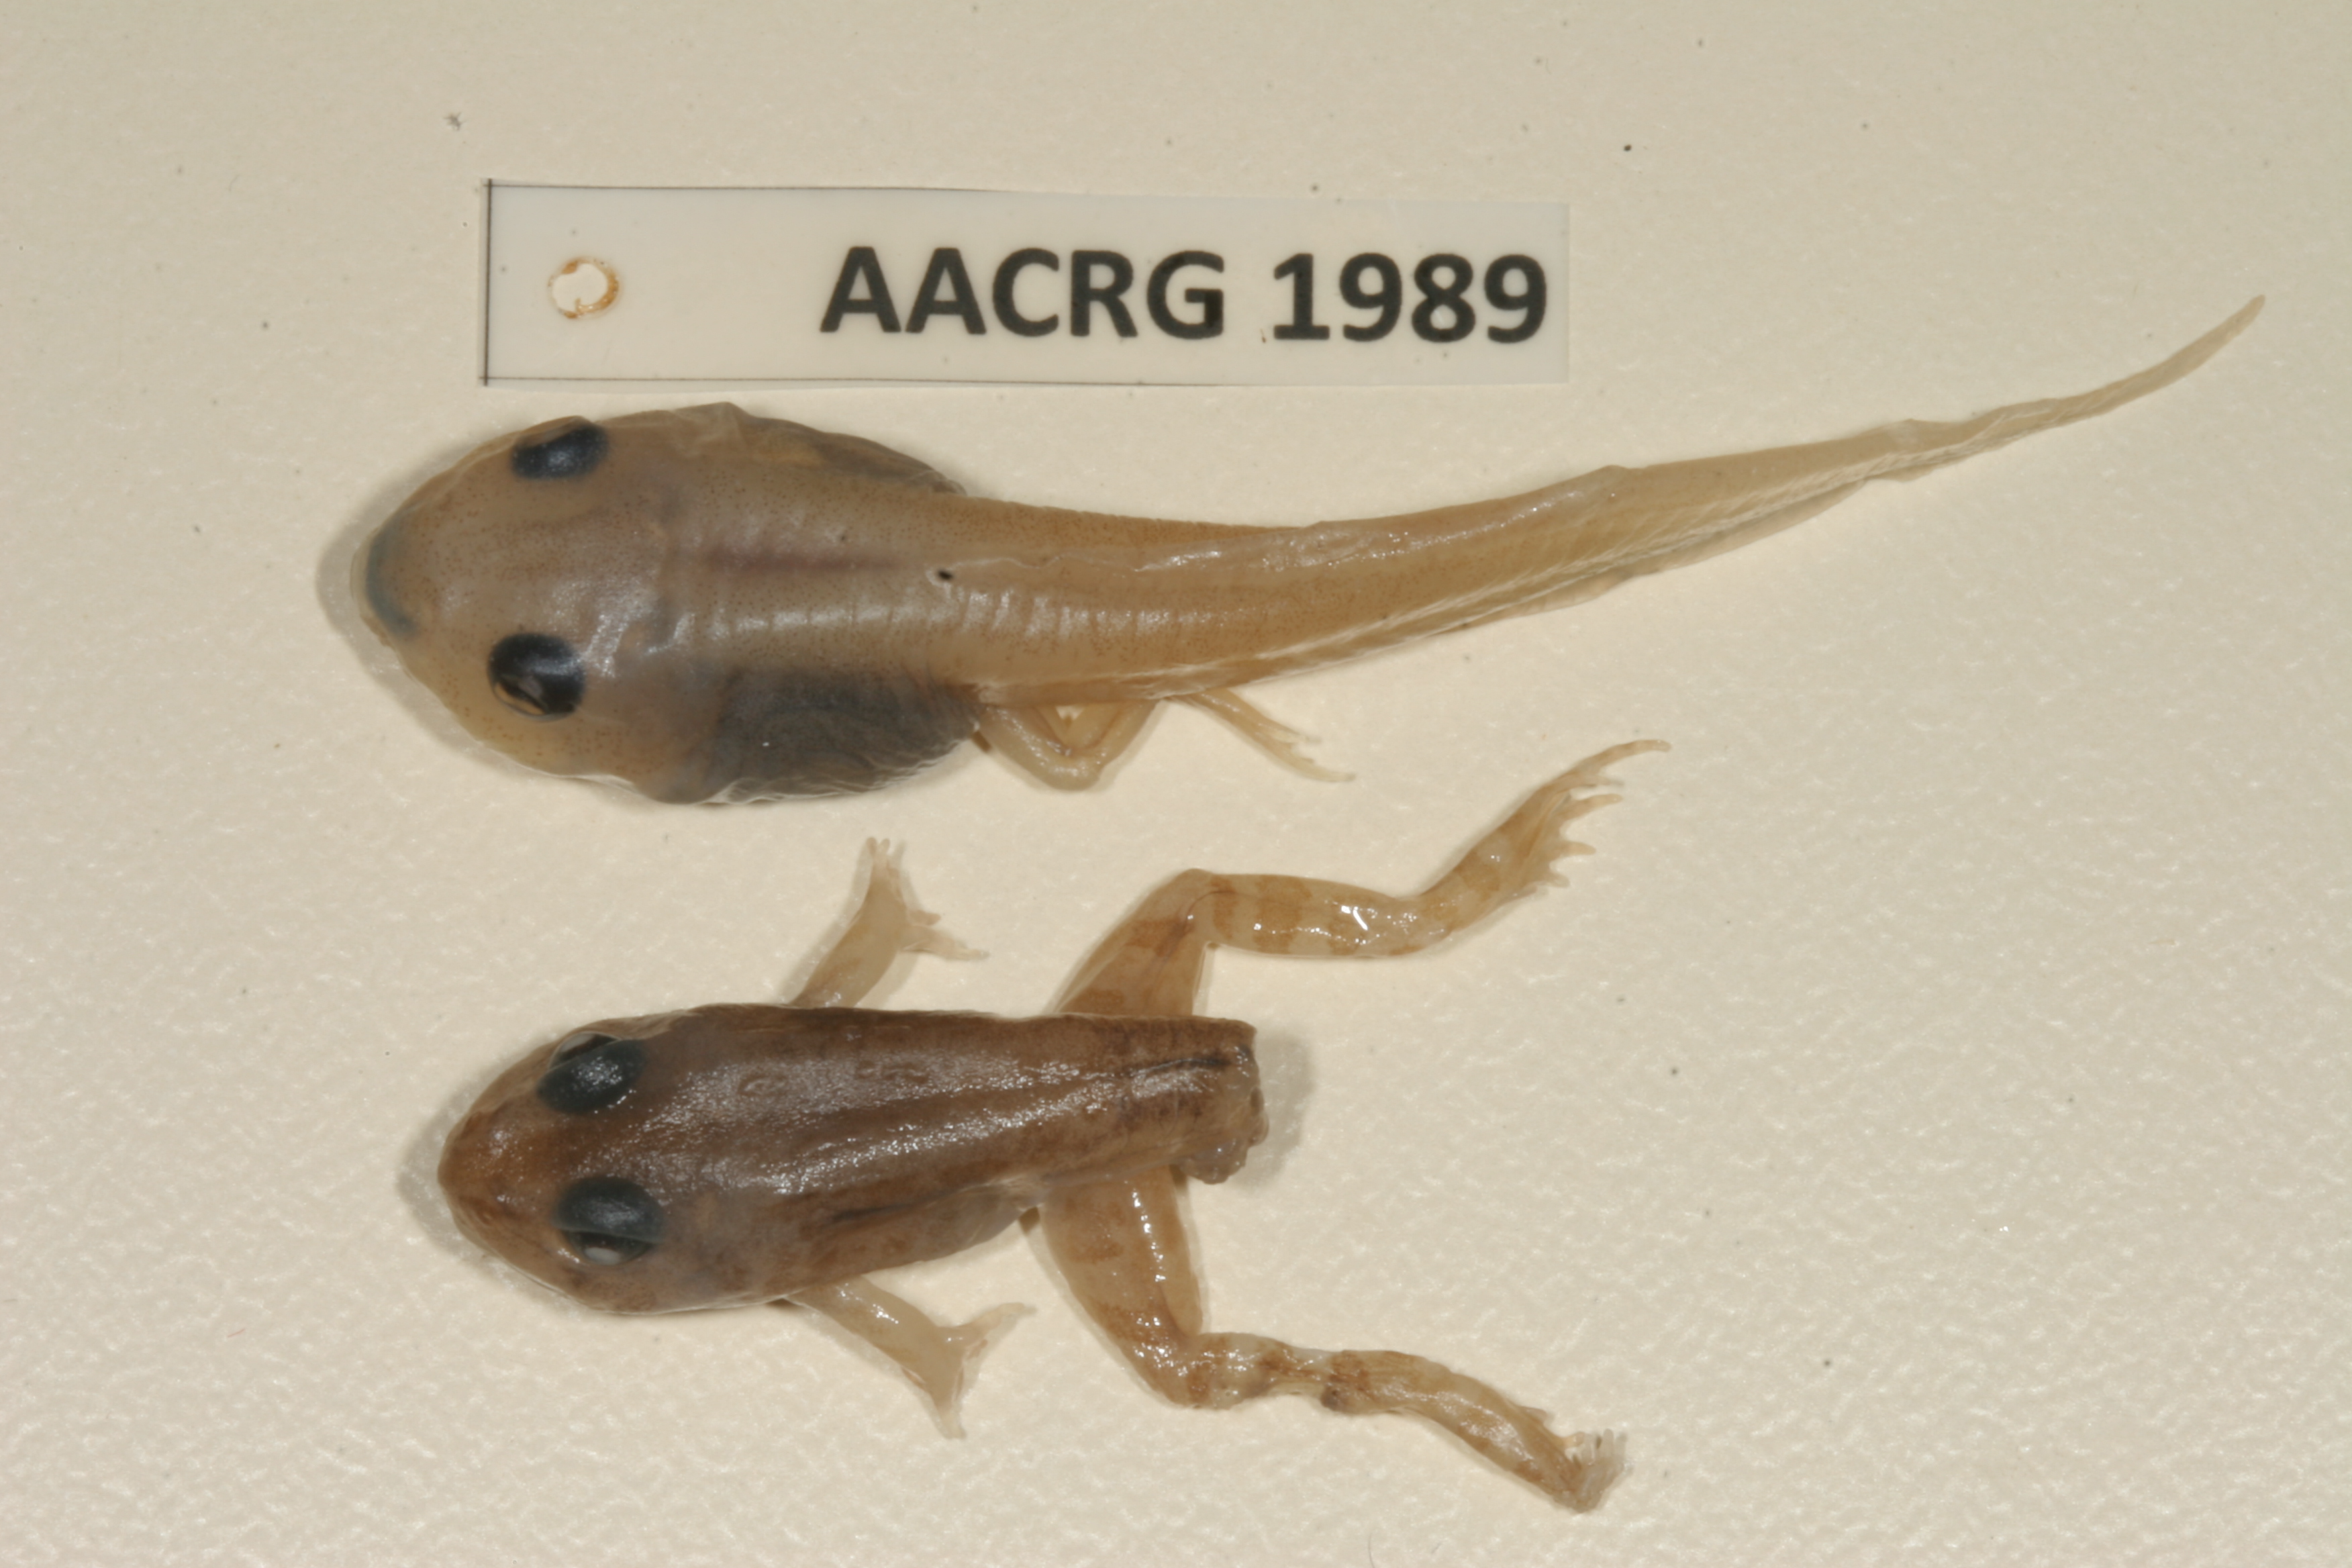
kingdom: Animalia
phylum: Chordata
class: Amphibia
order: Anura
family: Ptychadenidae
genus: Hildebrandtia
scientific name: Hildebrandtia ornata
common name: Ornate frog
